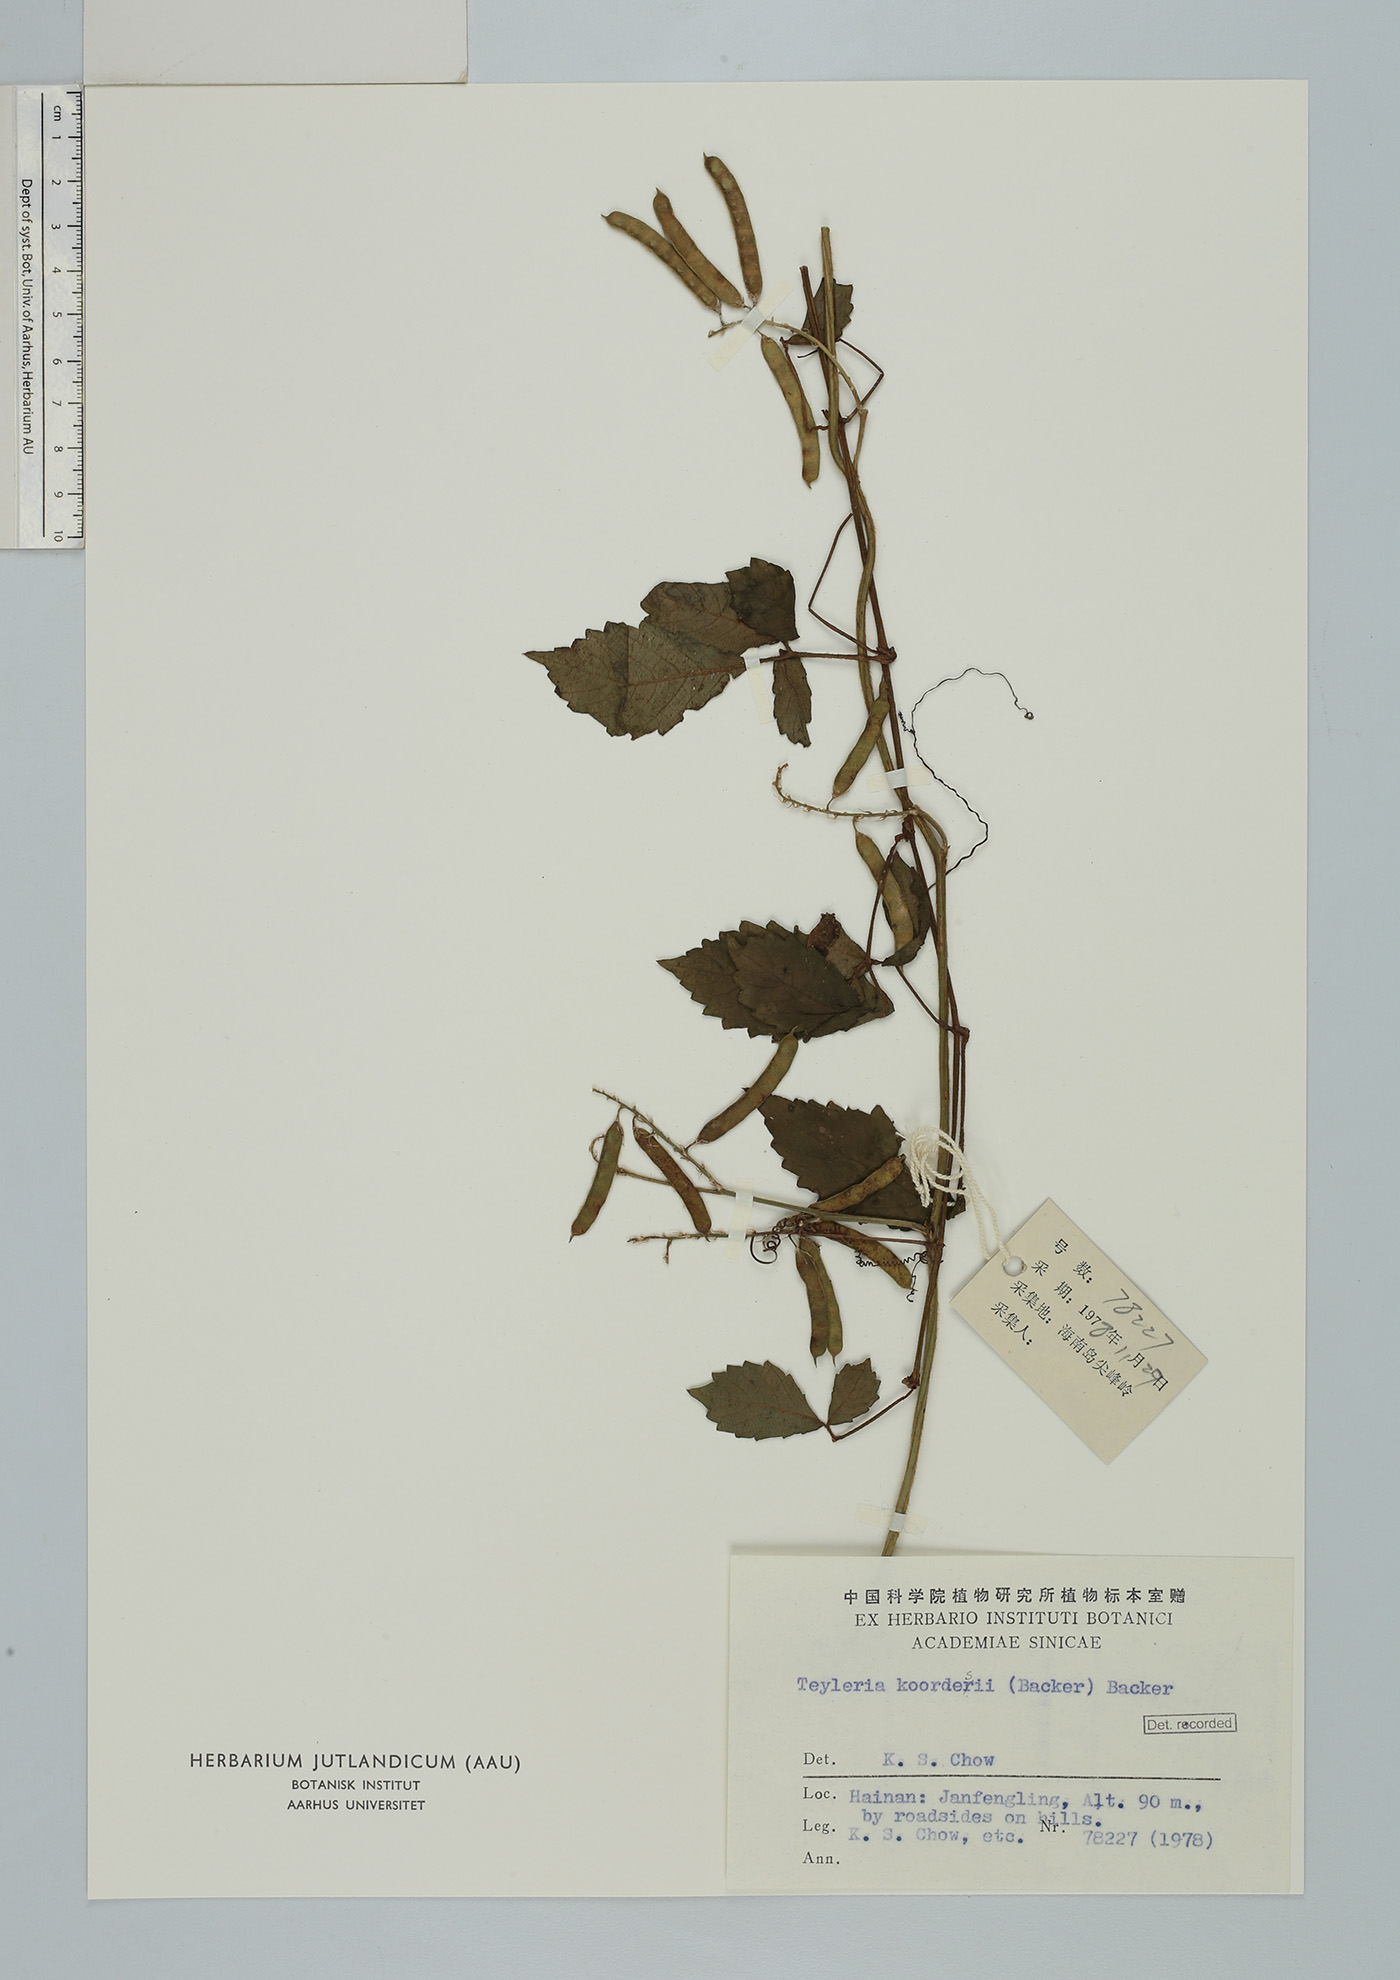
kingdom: Plantae
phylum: Tracheophyta
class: Magnoliopsida
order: Fabales
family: Fabaceae
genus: Teyleria
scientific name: Teyleria tetragona
